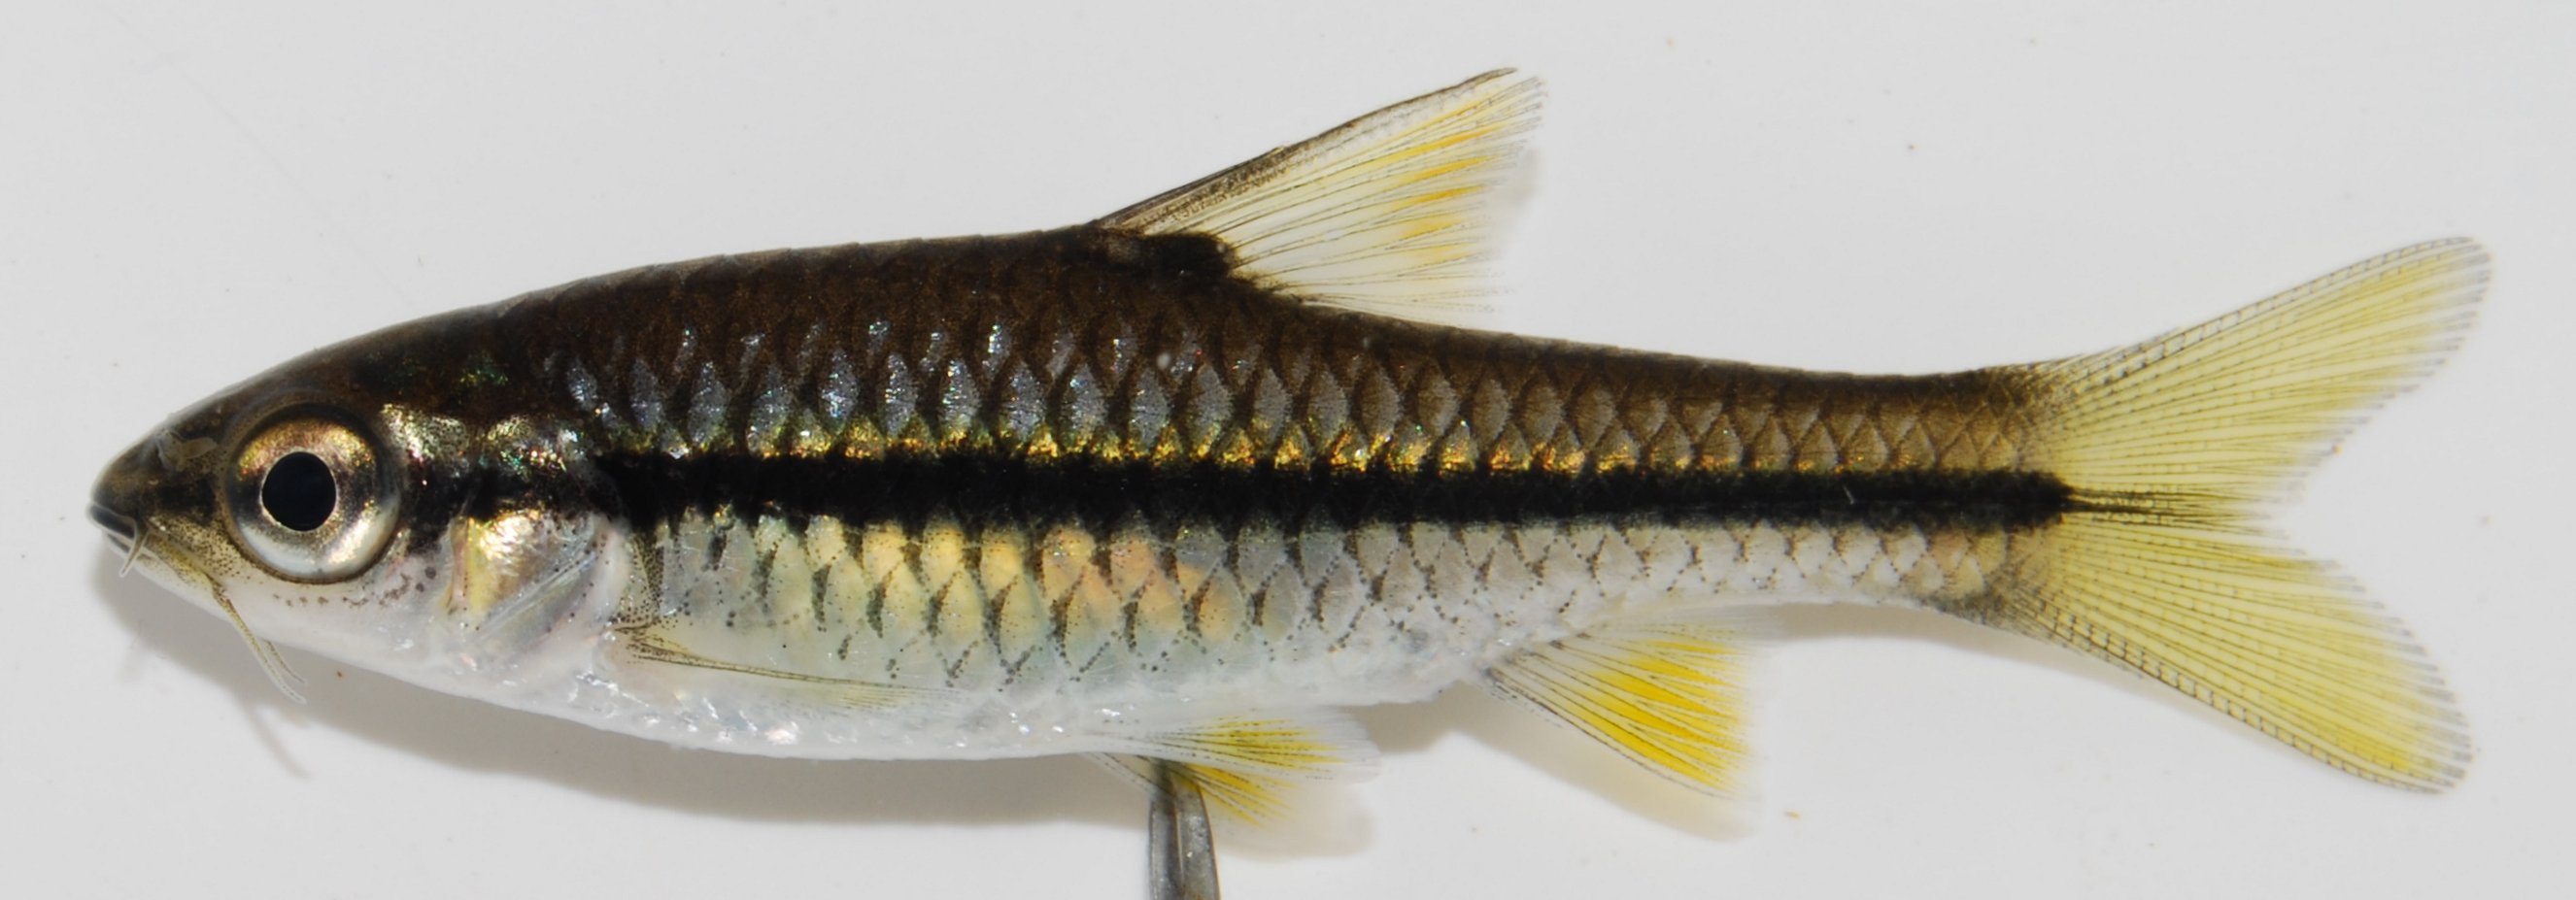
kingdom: Animalia
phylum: Chordata
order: Cypriniformes
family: Cyprinidae
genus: Enteromius
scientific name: Enteromius eutaenia
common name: Orangefin barb
